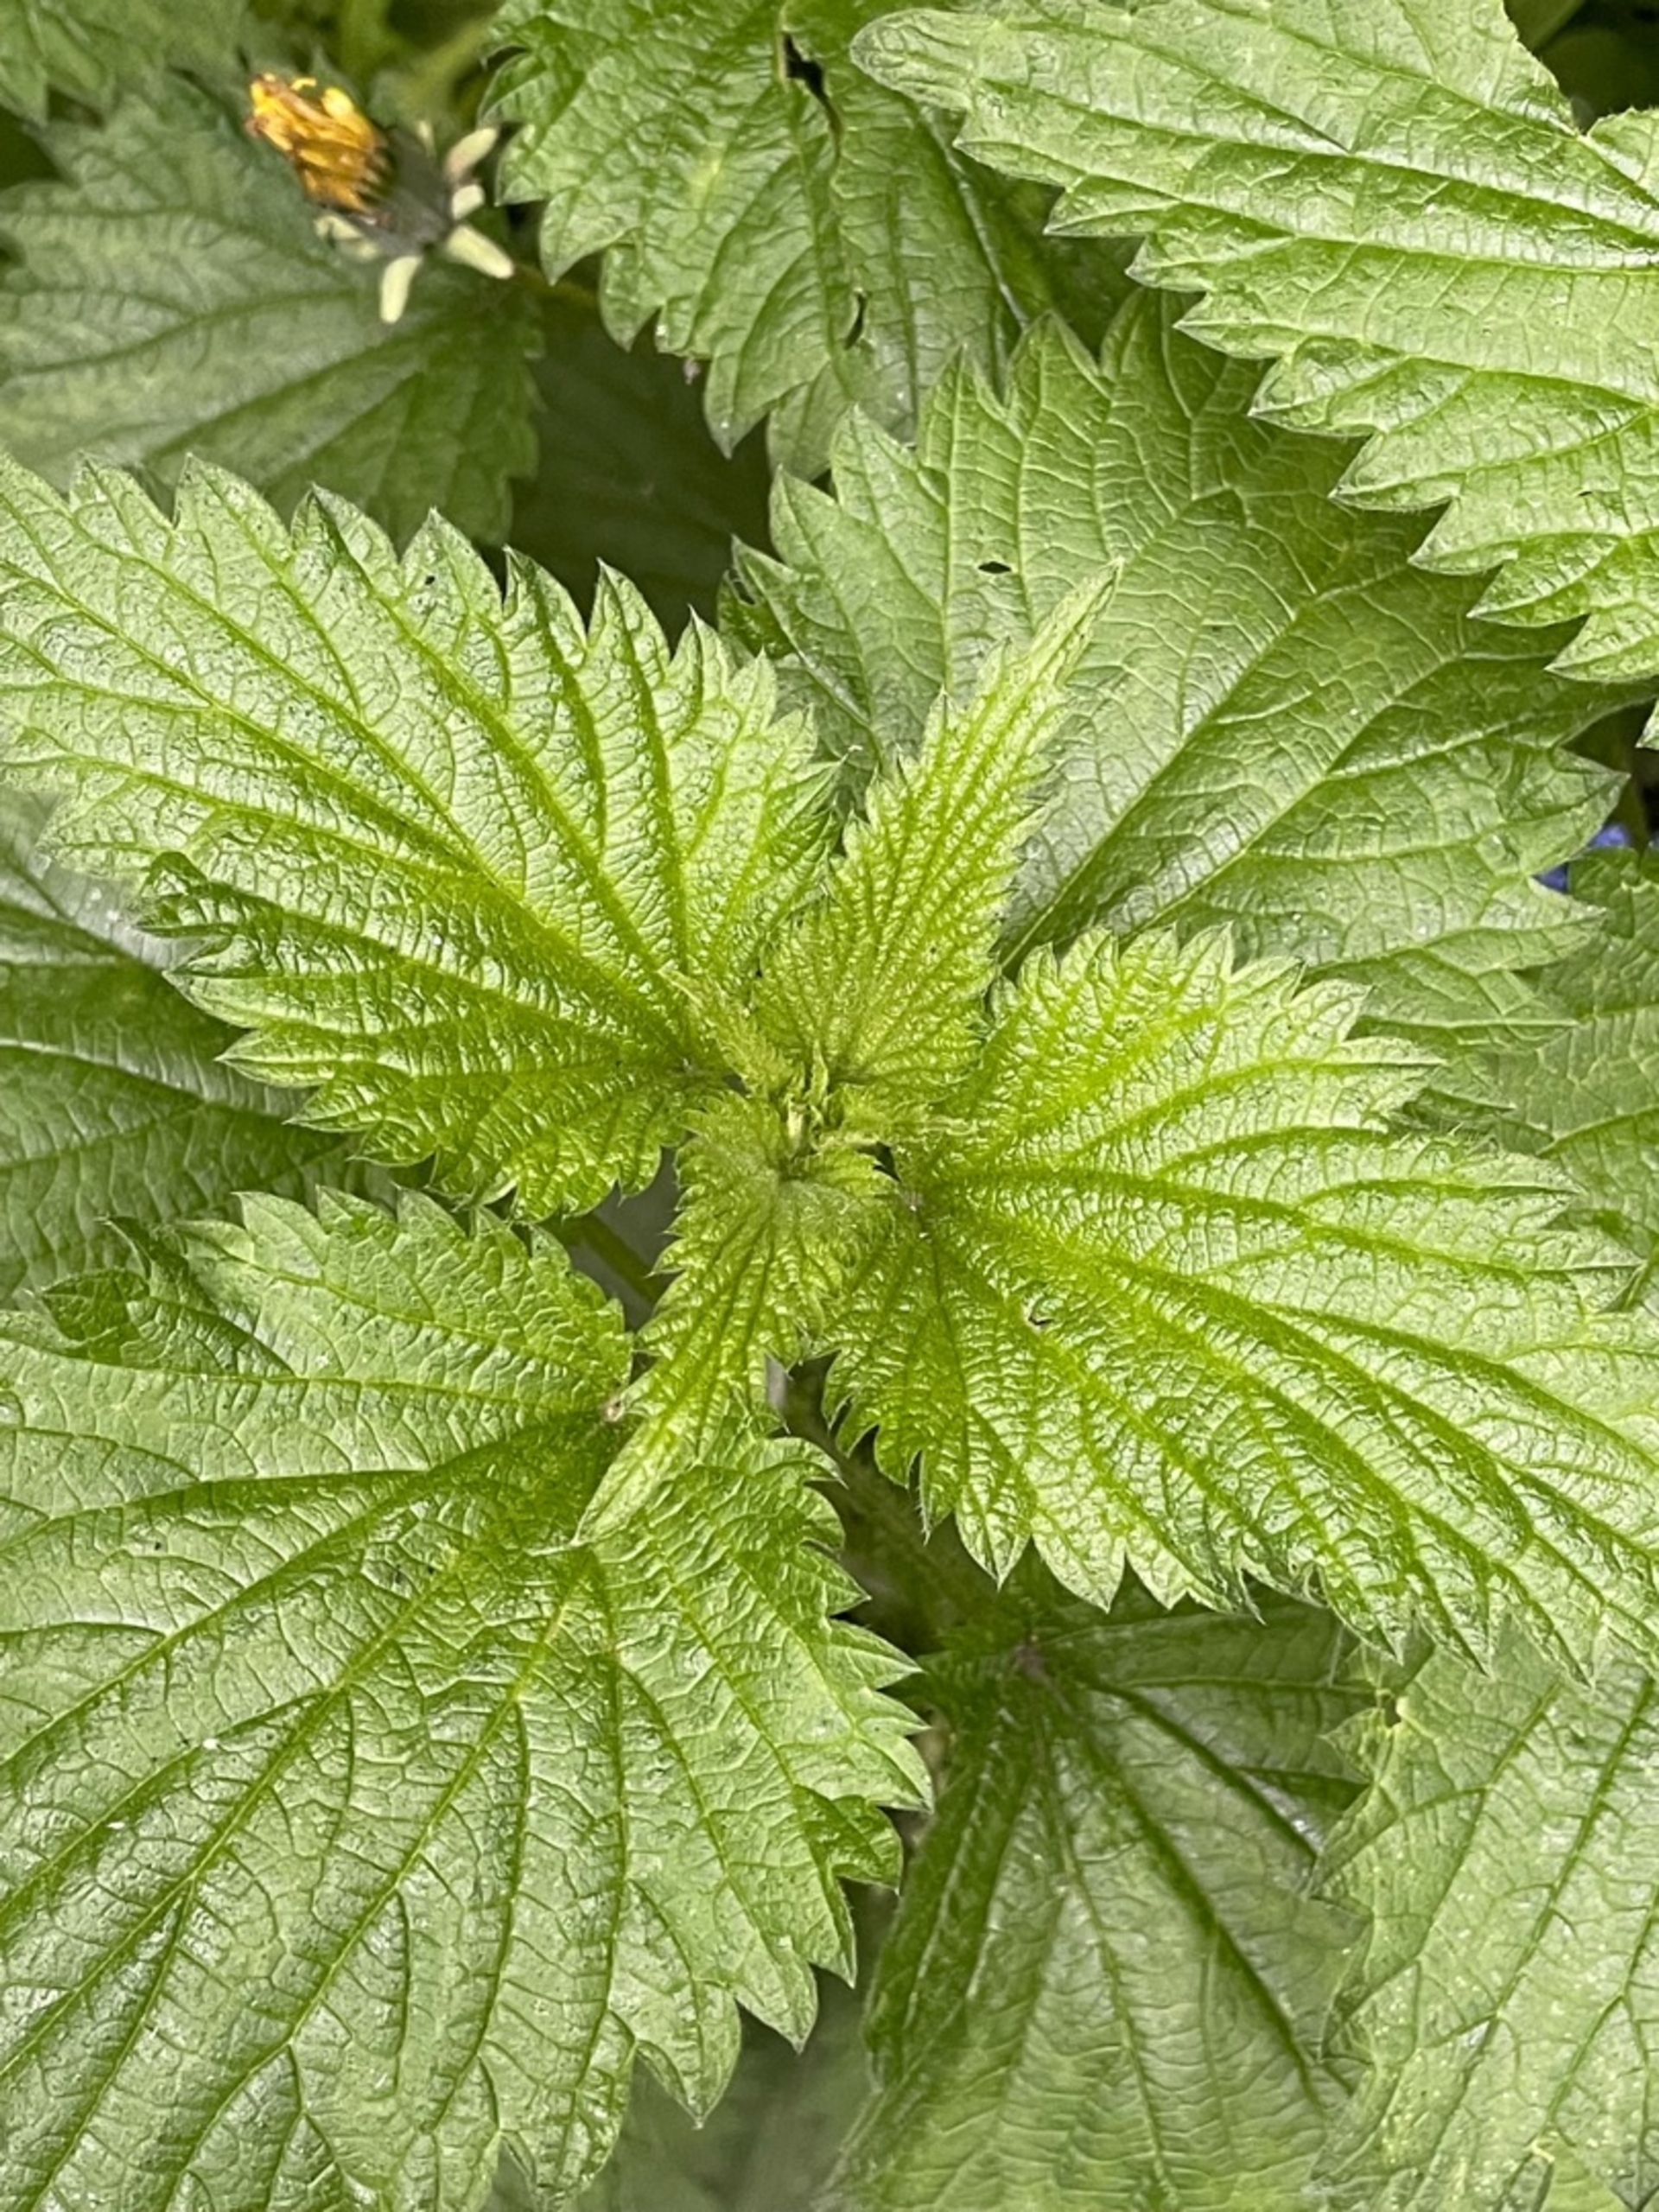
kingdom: Plantae
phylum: Tracheophyta
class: Magnoliopsida
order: Rosales
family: Urticaceae
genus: Urtica
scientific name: Urtica dioica
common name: Stor nælde
